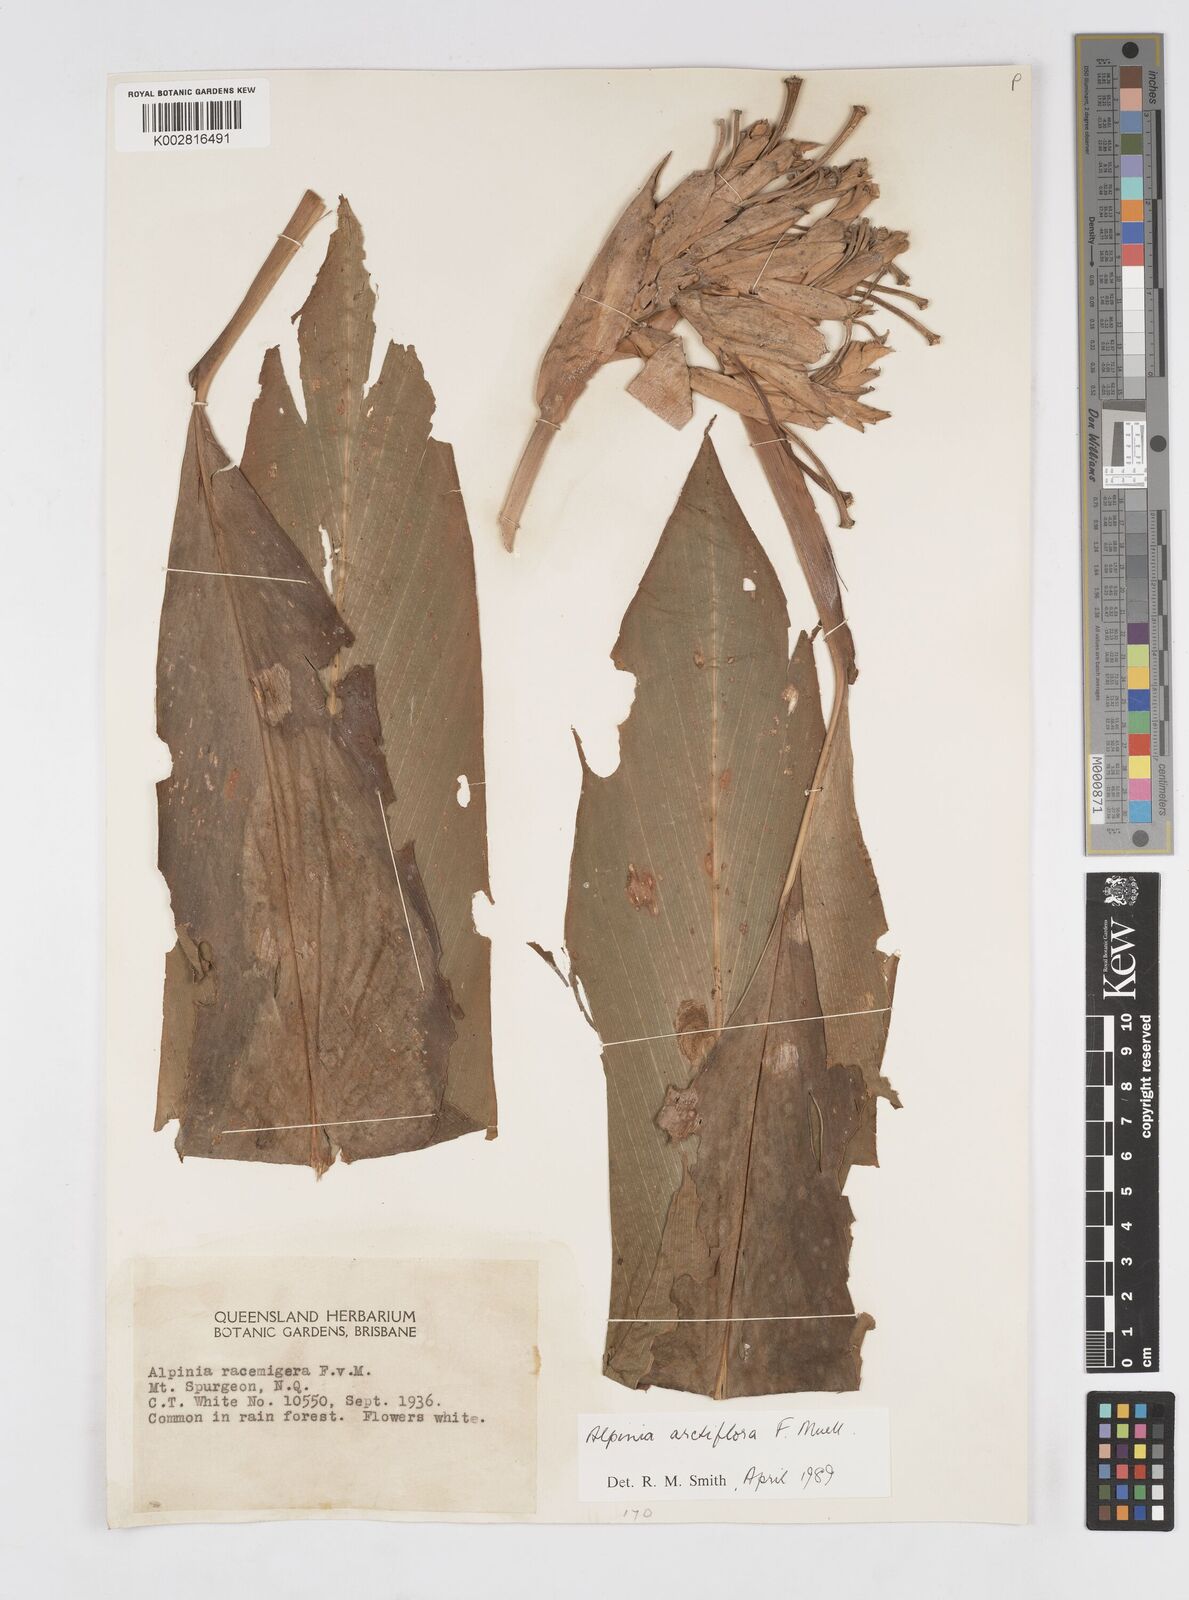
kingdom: Plantae
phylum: Tracheophyta
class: Liliopsida
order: Zingiberales
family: Zingiberaceae
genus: Alpinia
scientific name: Alpinia arctiflora
